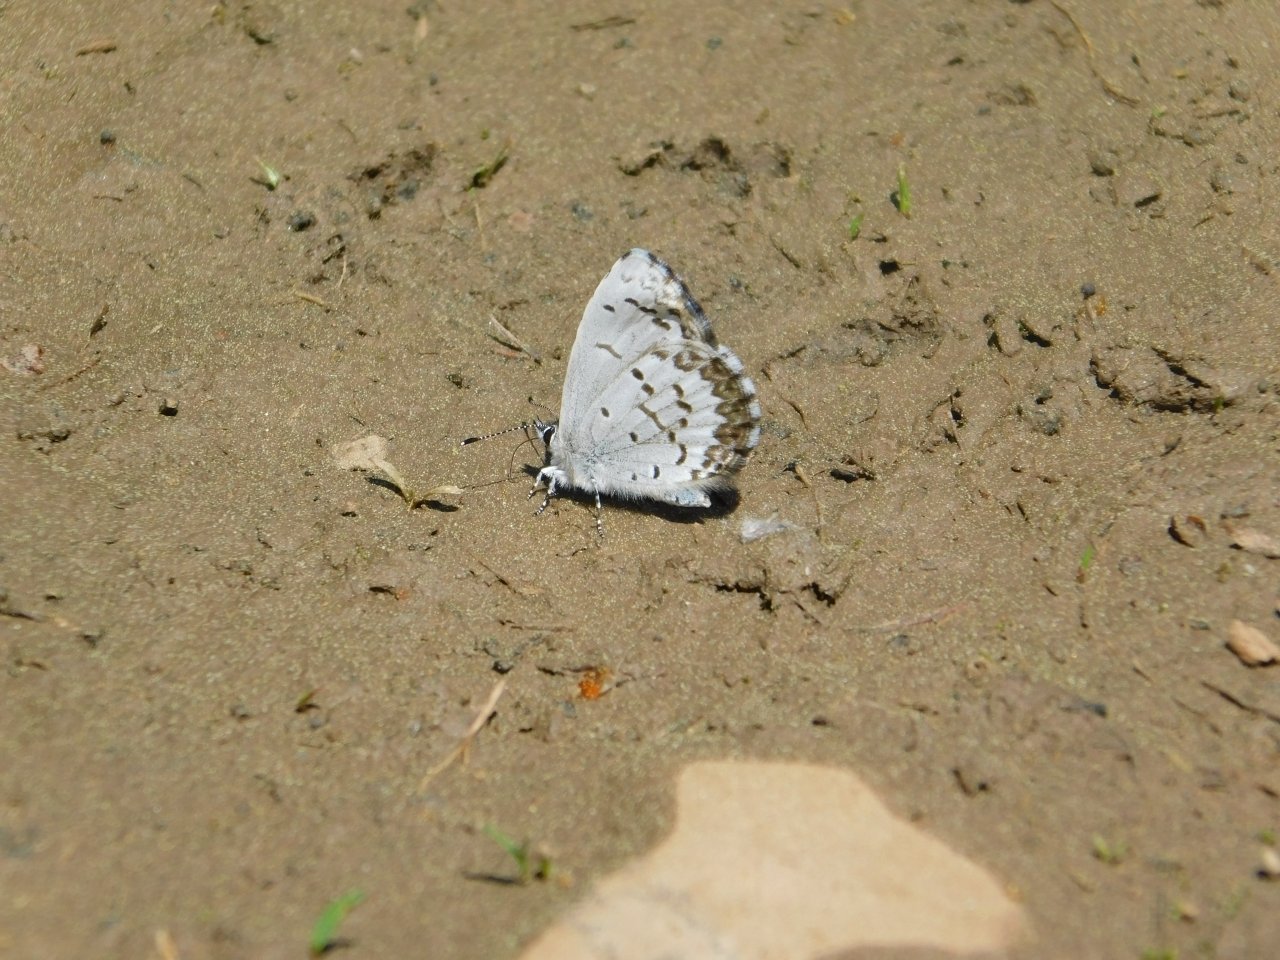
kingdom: Animalia
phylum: Arthropoda
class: Insecta
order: Lepidoptera
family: Lycaenidae
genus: Celastrina
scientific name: Celastrina lucia
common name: Northern Spring Azure
